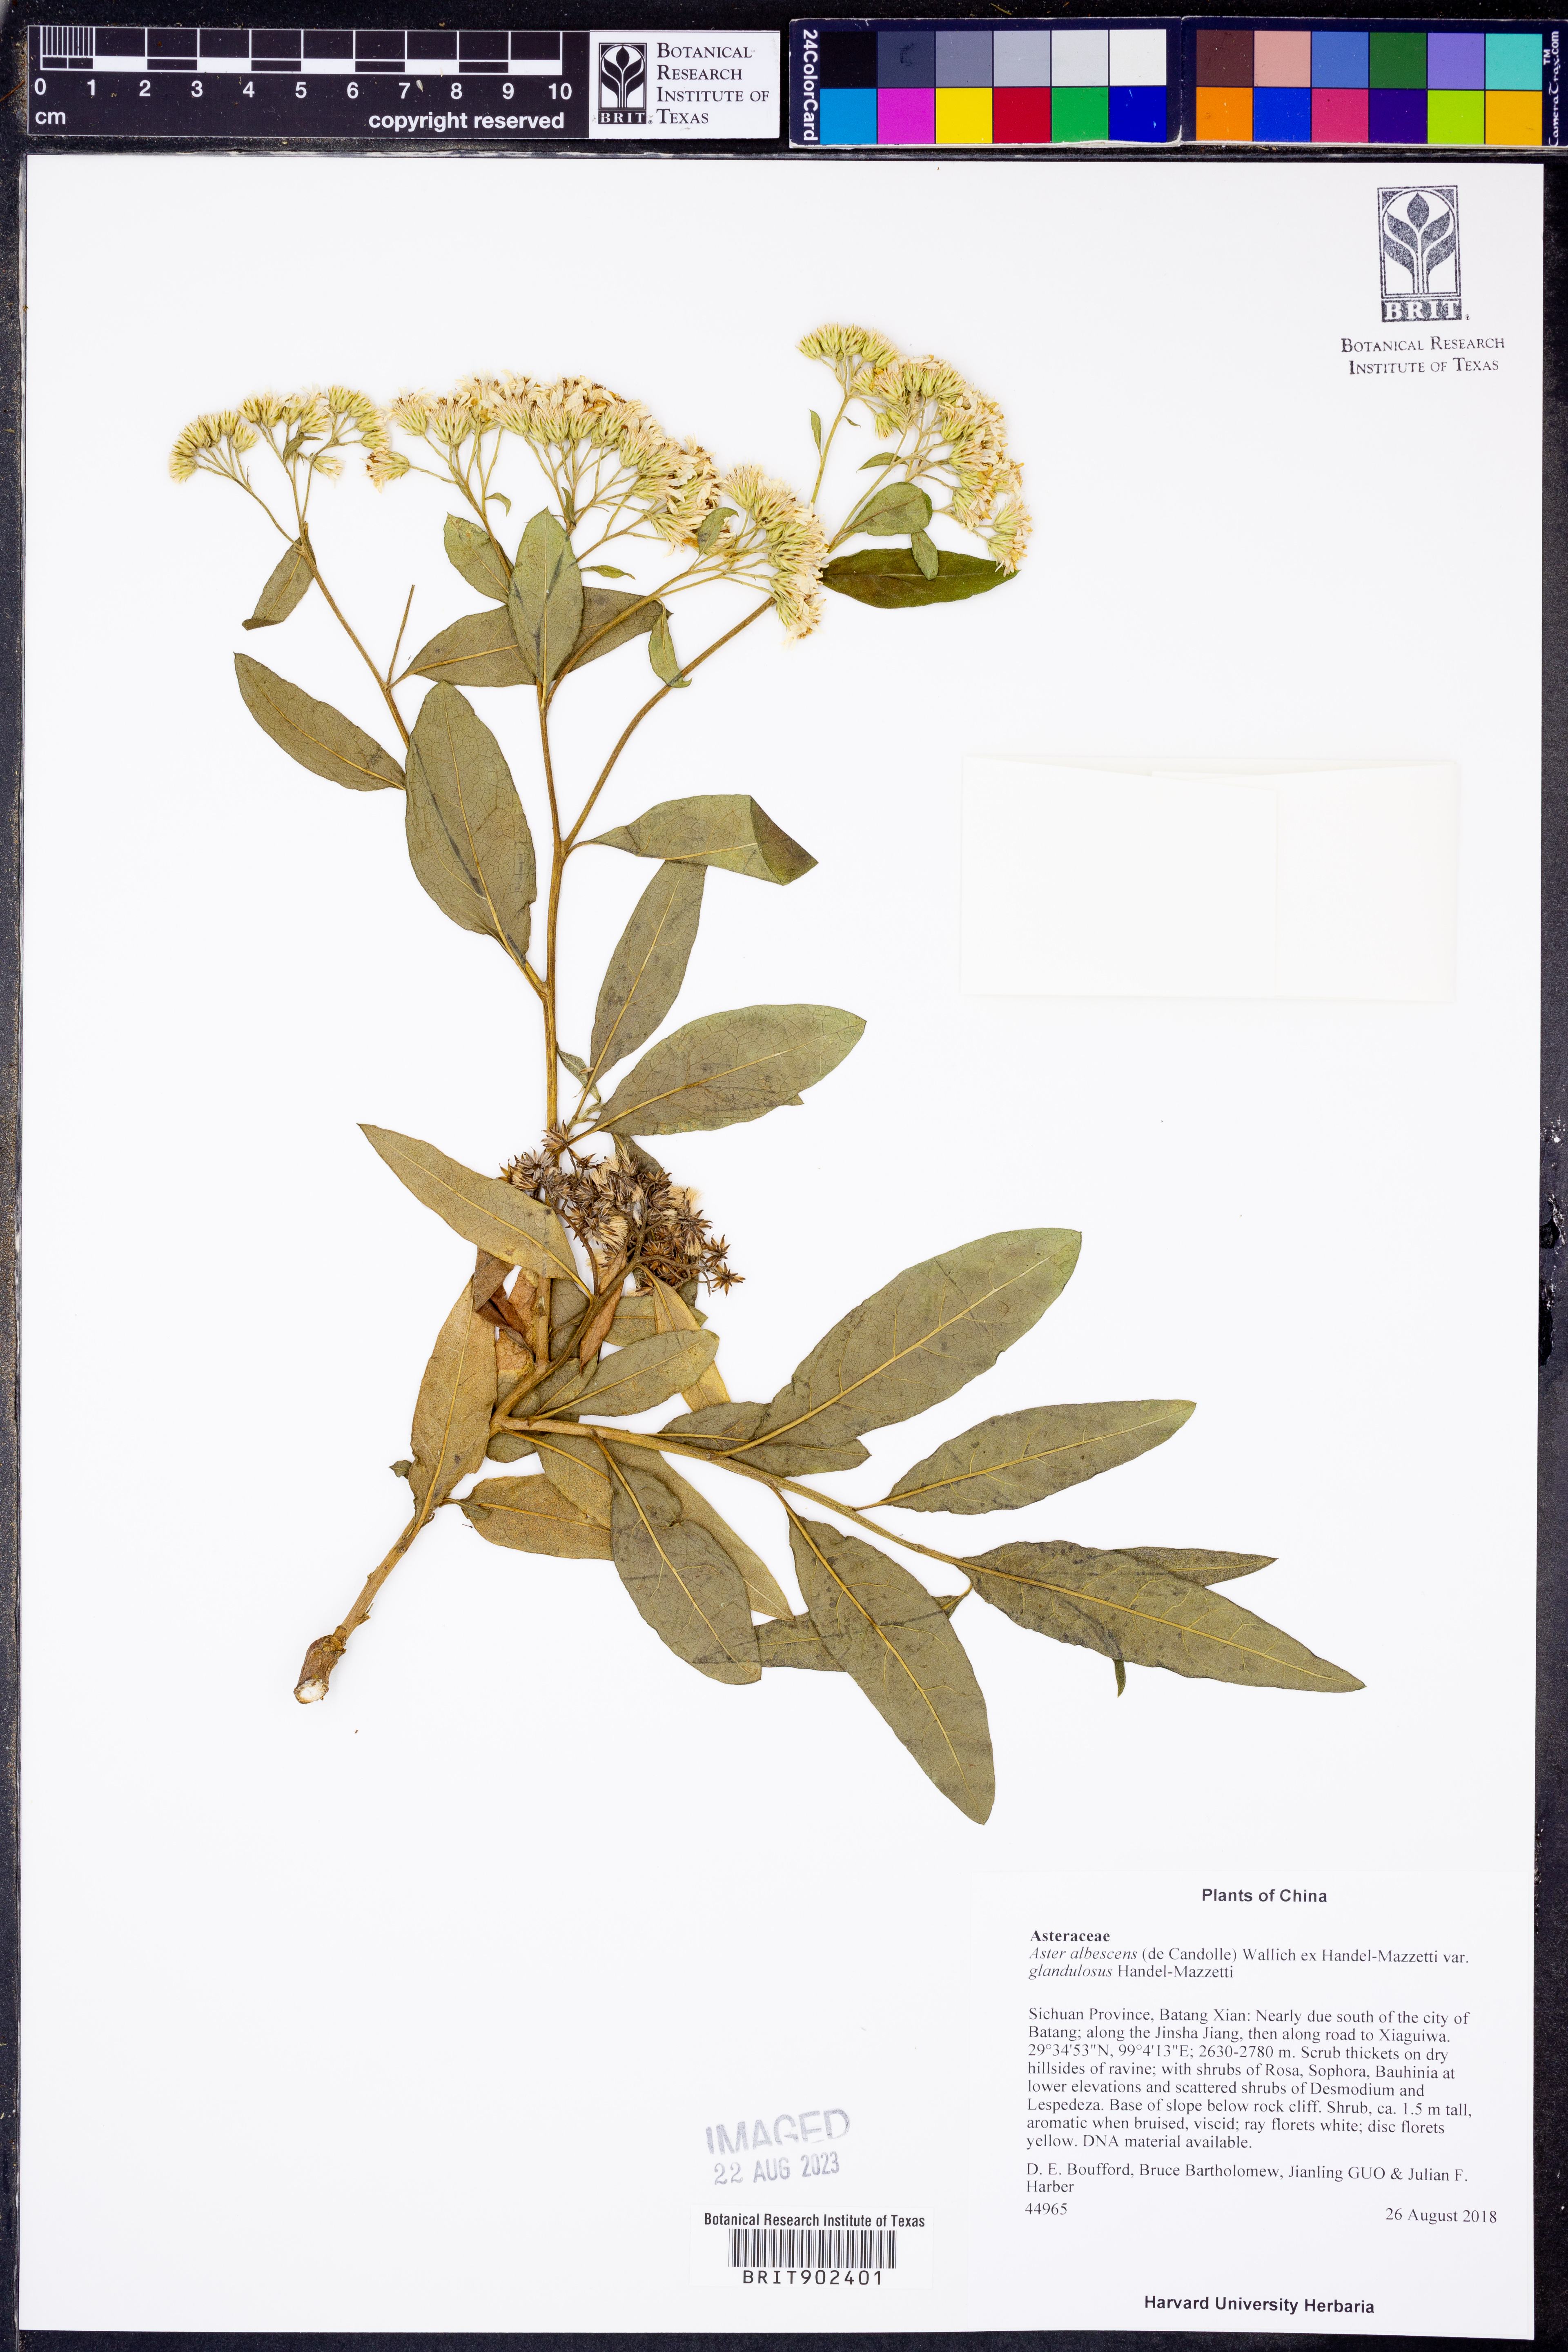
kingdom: Plantae
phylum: Tracheophyta
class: Magnoliopsida
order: Asterales
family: Asteraceae
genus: Aster
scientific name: Aster
